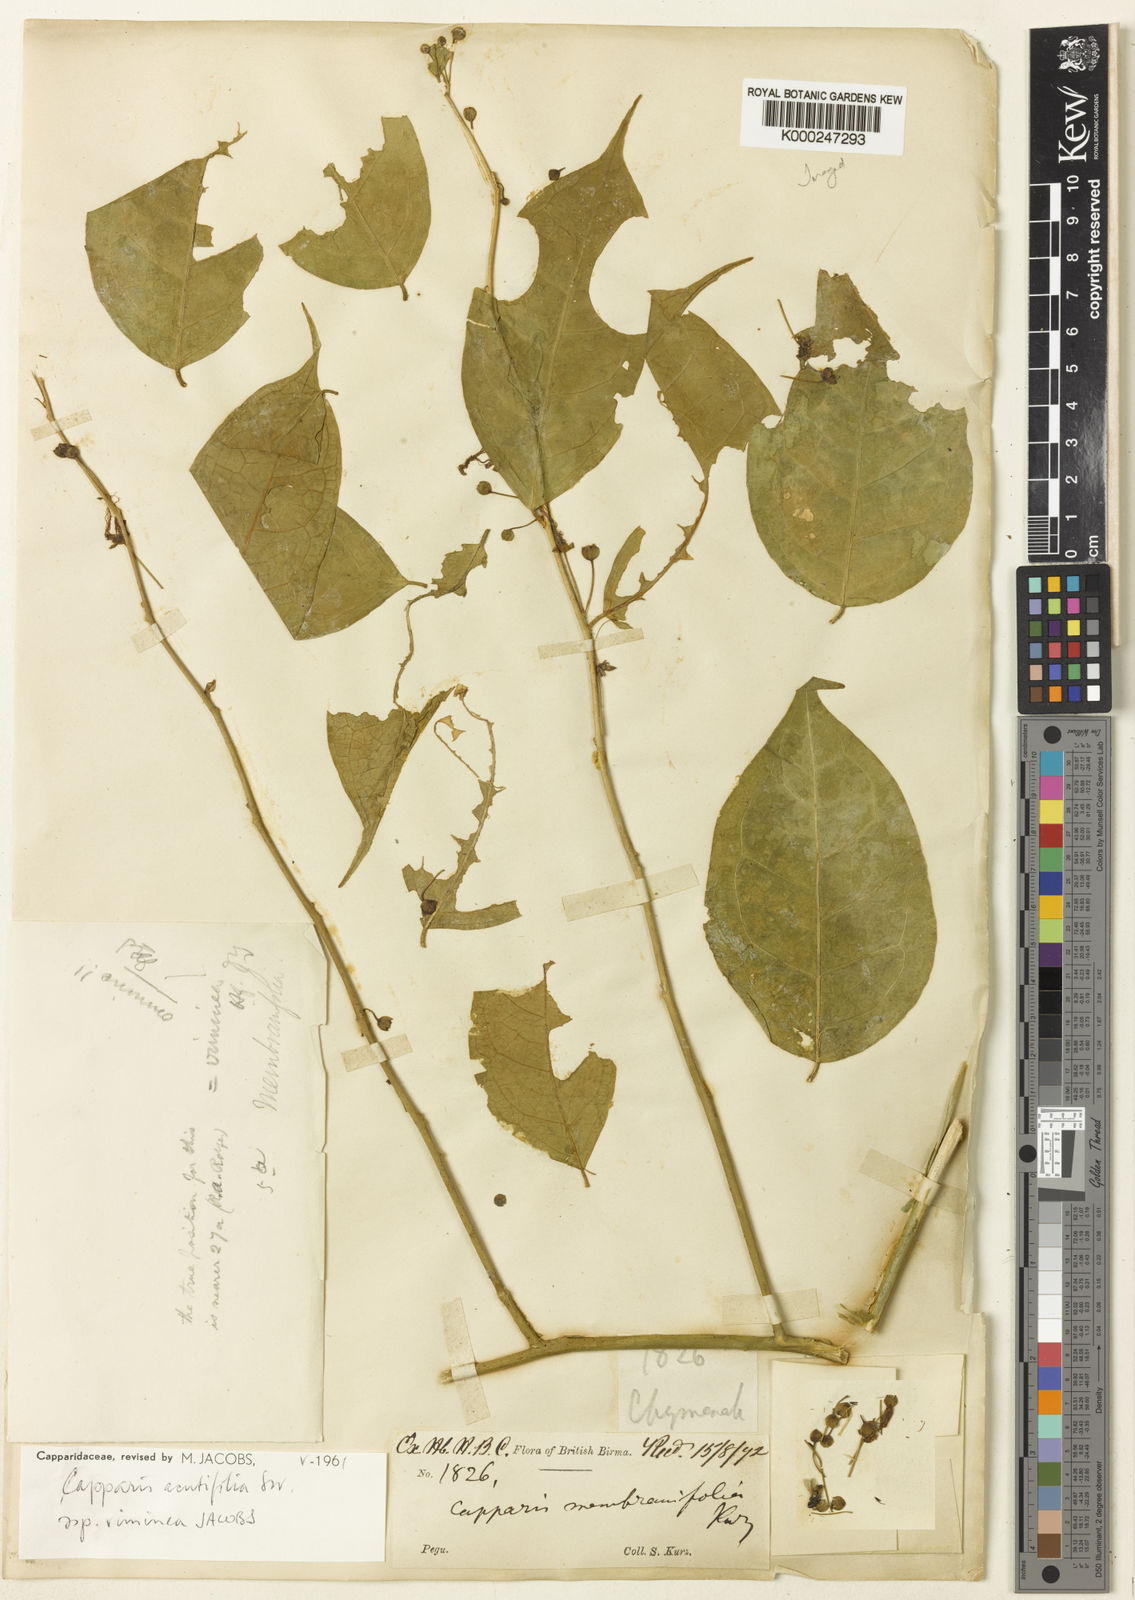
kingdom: Plantae
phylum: Tracheophyta
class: Magnoliopsida
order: Brassicales
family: Capparaceae
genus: Capparis
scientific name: Capparis acutifolia
